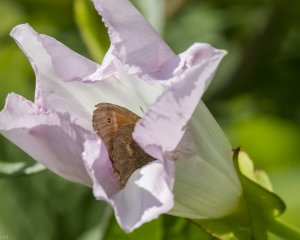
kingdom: Animalia
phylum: Arthropoda
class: Insecta
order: Lepidoptera
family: Nymphalidae
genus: Coenonympha
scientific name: Coenonympha tullia
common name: Large Heath
